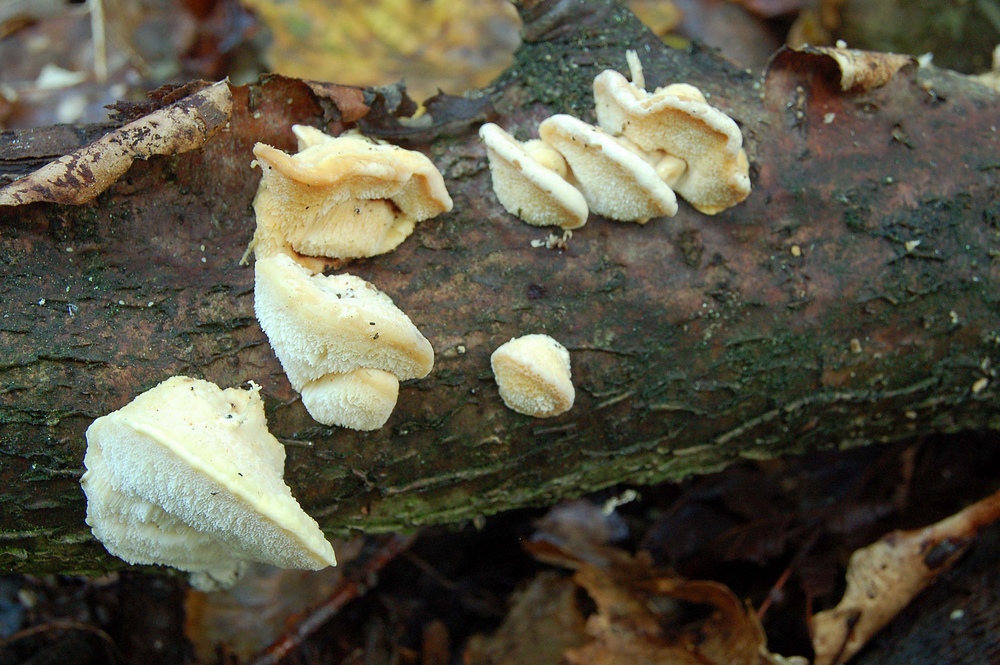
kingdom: Fungi
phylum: Basidiomycota
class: Agaricomycetes
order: Polyporales
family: Steccherinaceae
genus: Antrodiella
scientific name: Antrodiella serpula
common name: gulrandet elastikporesvamp
